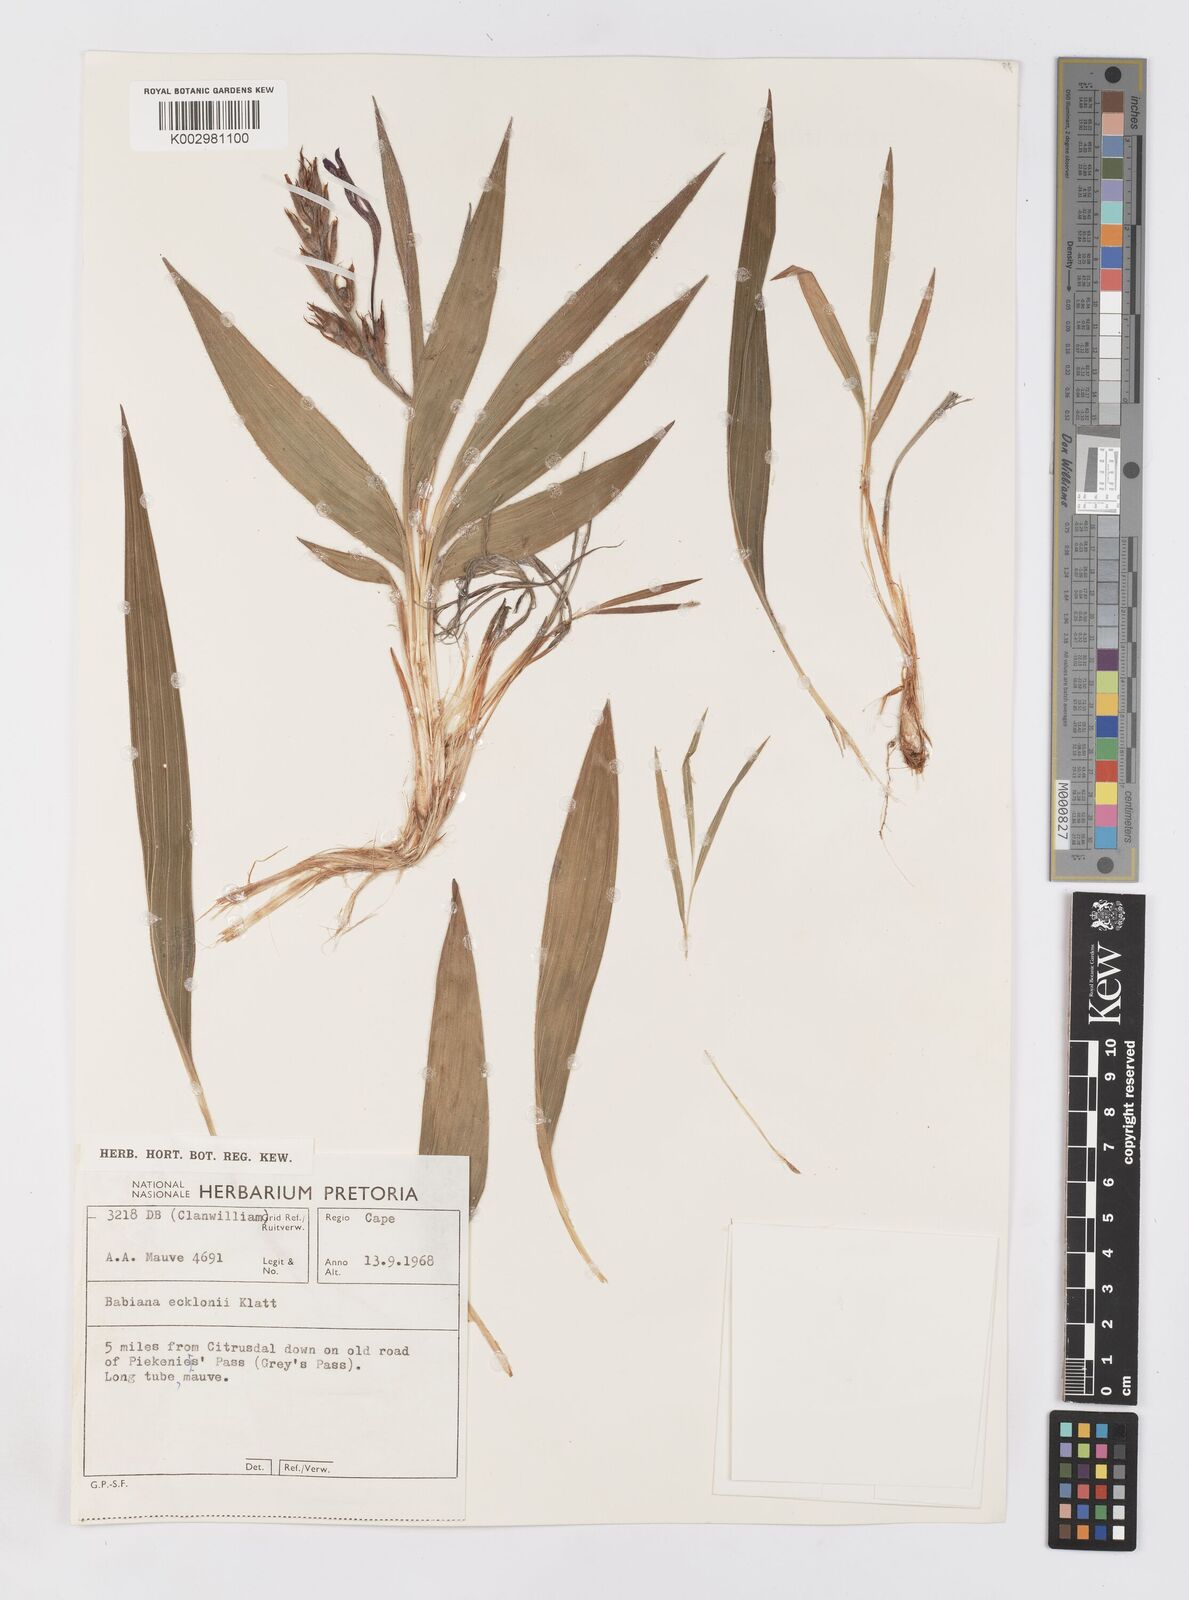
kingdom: Plantae
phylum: Tracheophyta
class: Liliopsida
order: Asparagales
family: Iridaceae
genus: Babiana
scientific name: Babiana ecklonii
